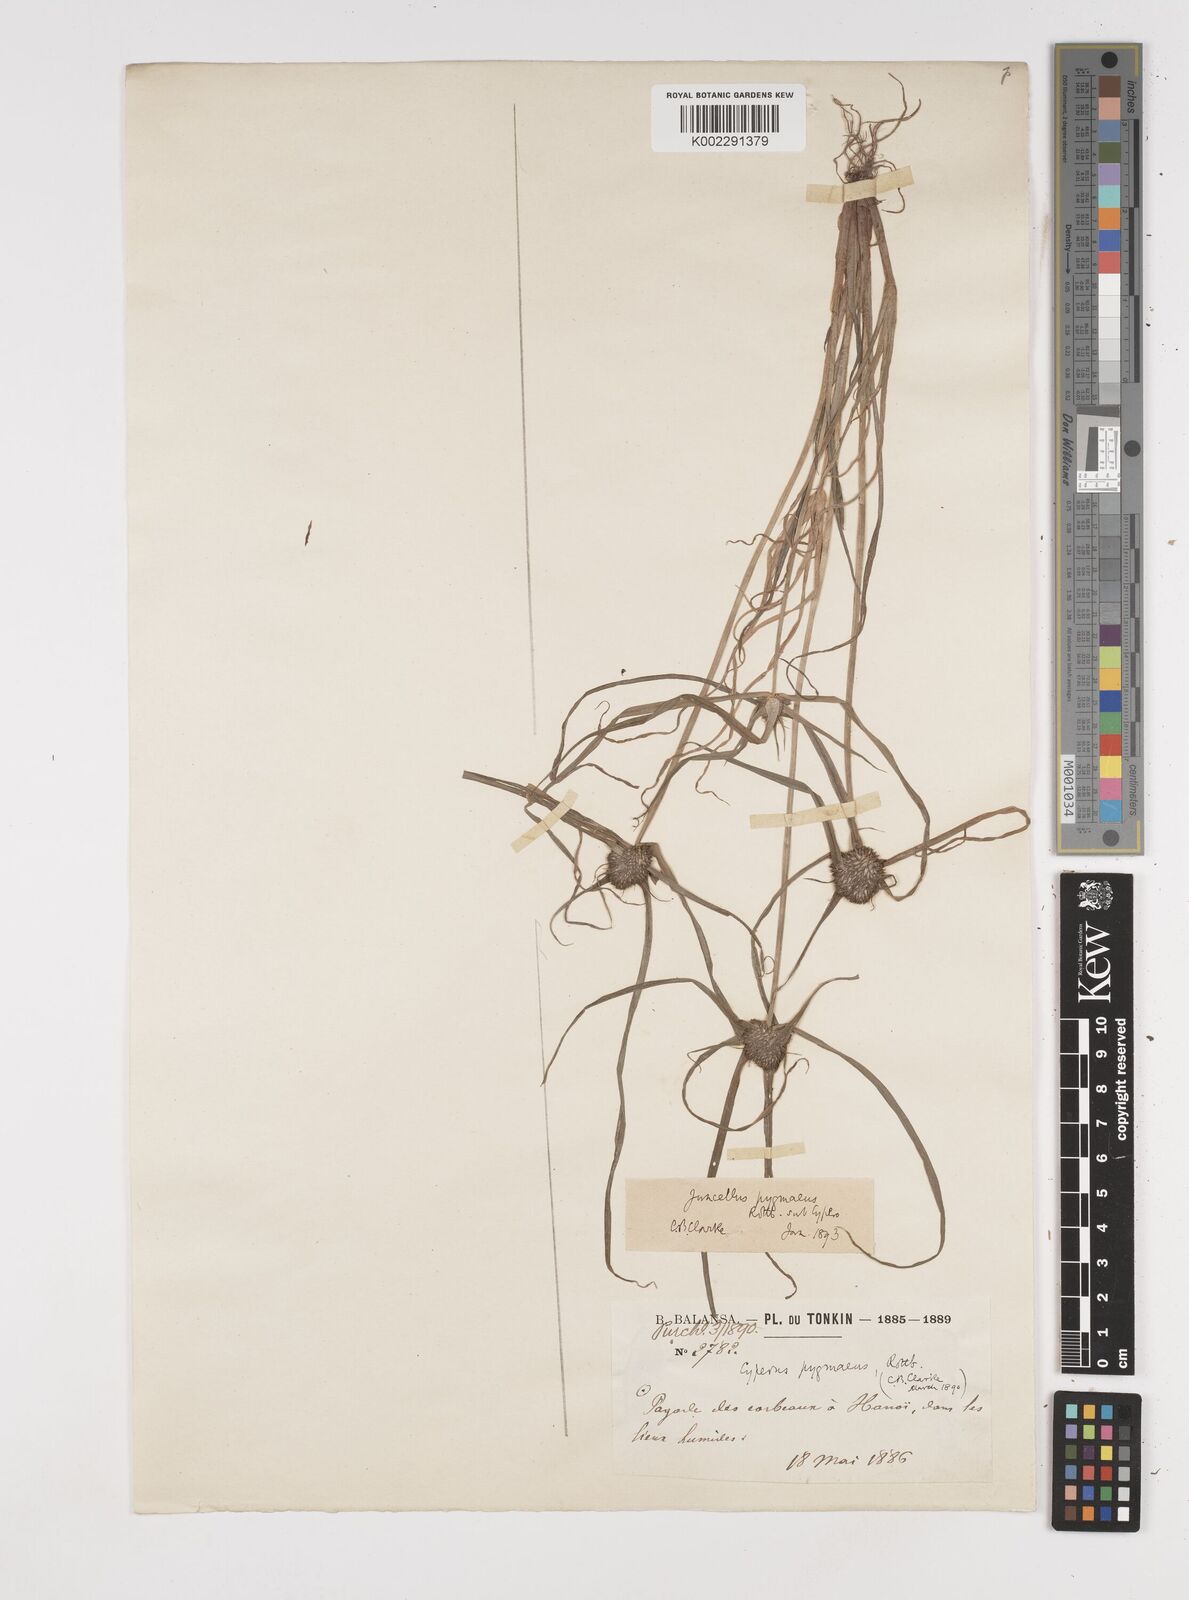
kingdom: Plantae
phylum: Tracheophyta
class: Liliopsida
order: Poales
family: Cyperaceae
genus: Cyperus
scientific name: Cyperus michelianus
